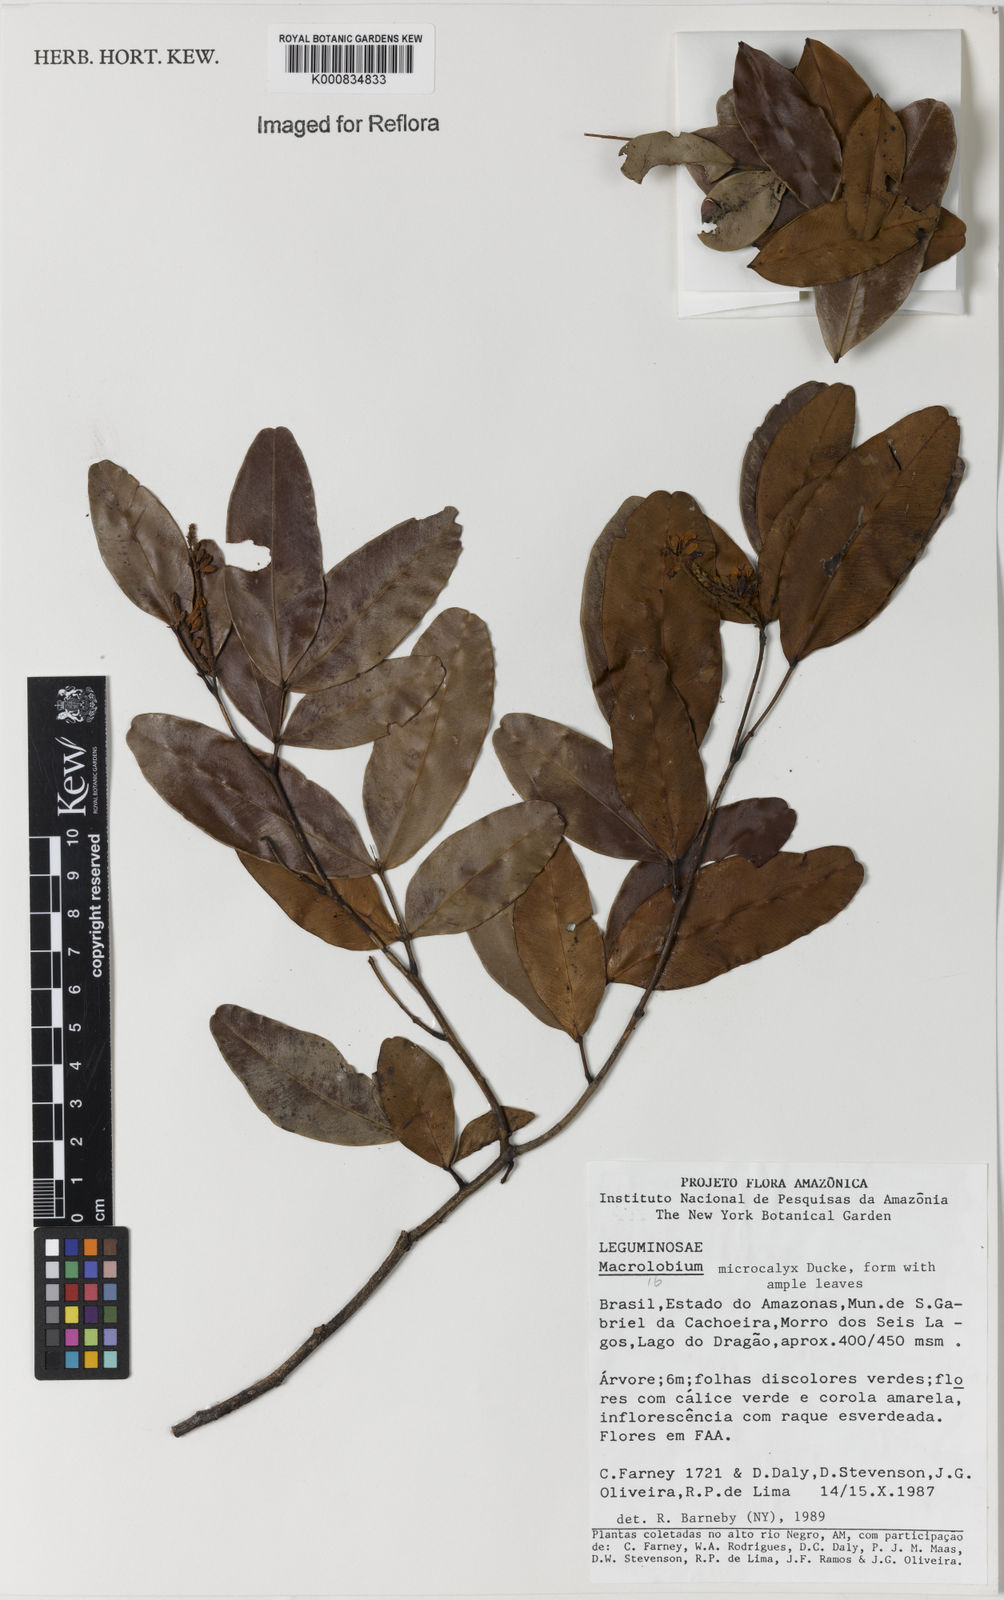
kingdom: Plantae
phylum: Tracheophyta
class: Magnoliopsida
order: Fabales
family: Fabaceae
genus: Macrolobium
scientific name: Macrolobium microcalyx
